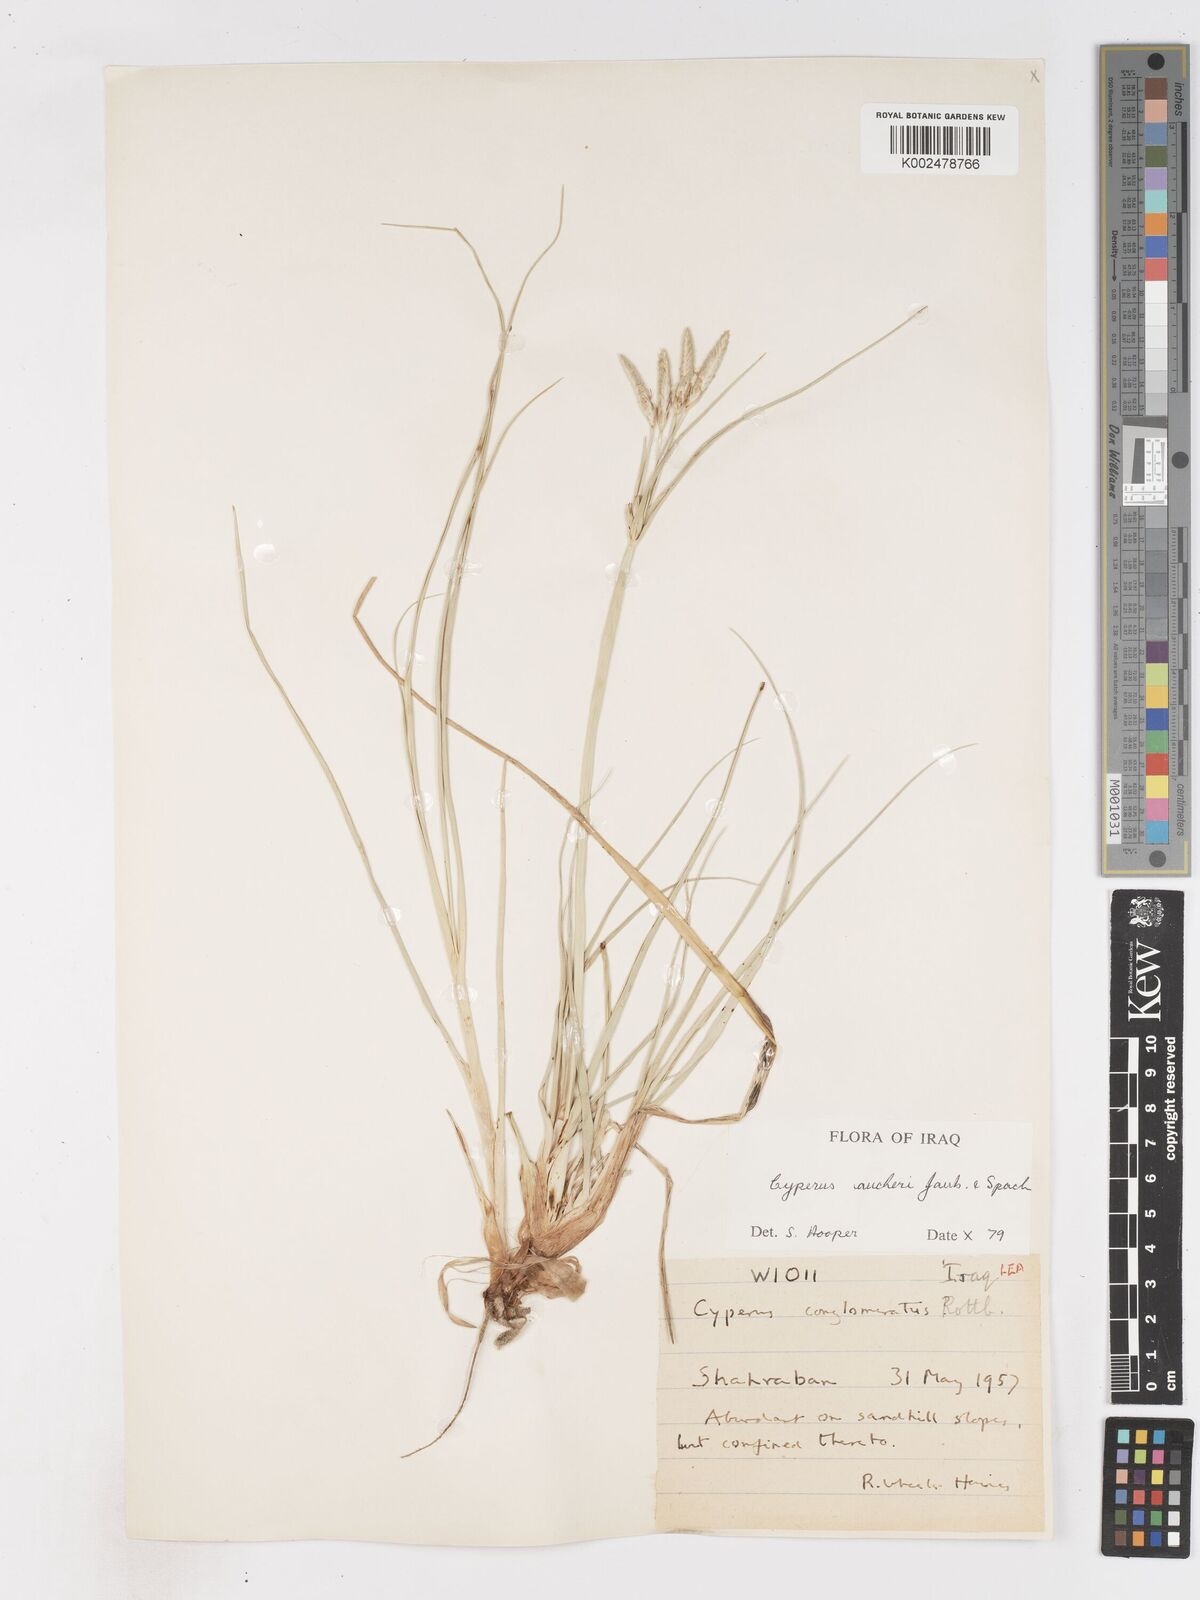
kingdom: Plantae
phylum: Tracheophyta
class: Liliopsida
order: Poales
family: Cyperaceae
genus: Cyperus
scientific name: Cyperus aucheri
